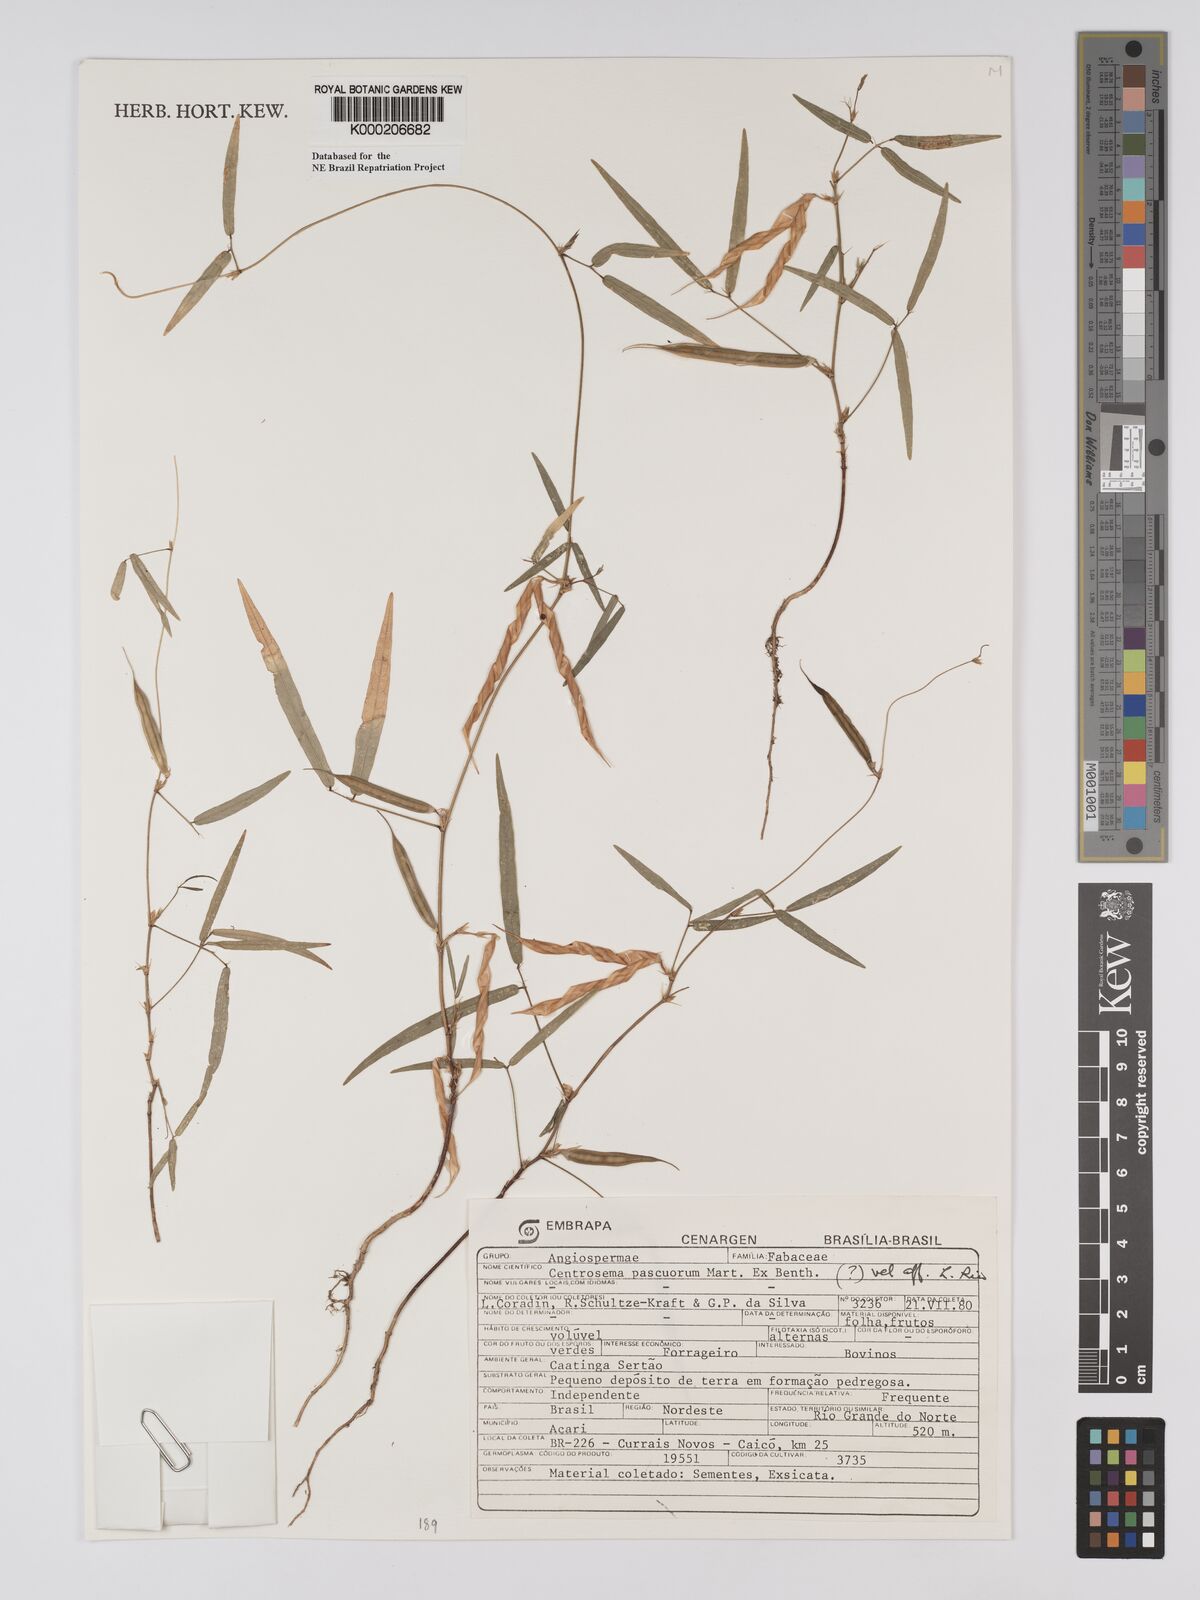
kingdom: Plantae
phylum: Tracheophyta
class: Magnoliopsida
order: Fabales
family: Fabaceae
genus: Centrosema
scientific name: Centrosema pascuorum
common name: Centurion
